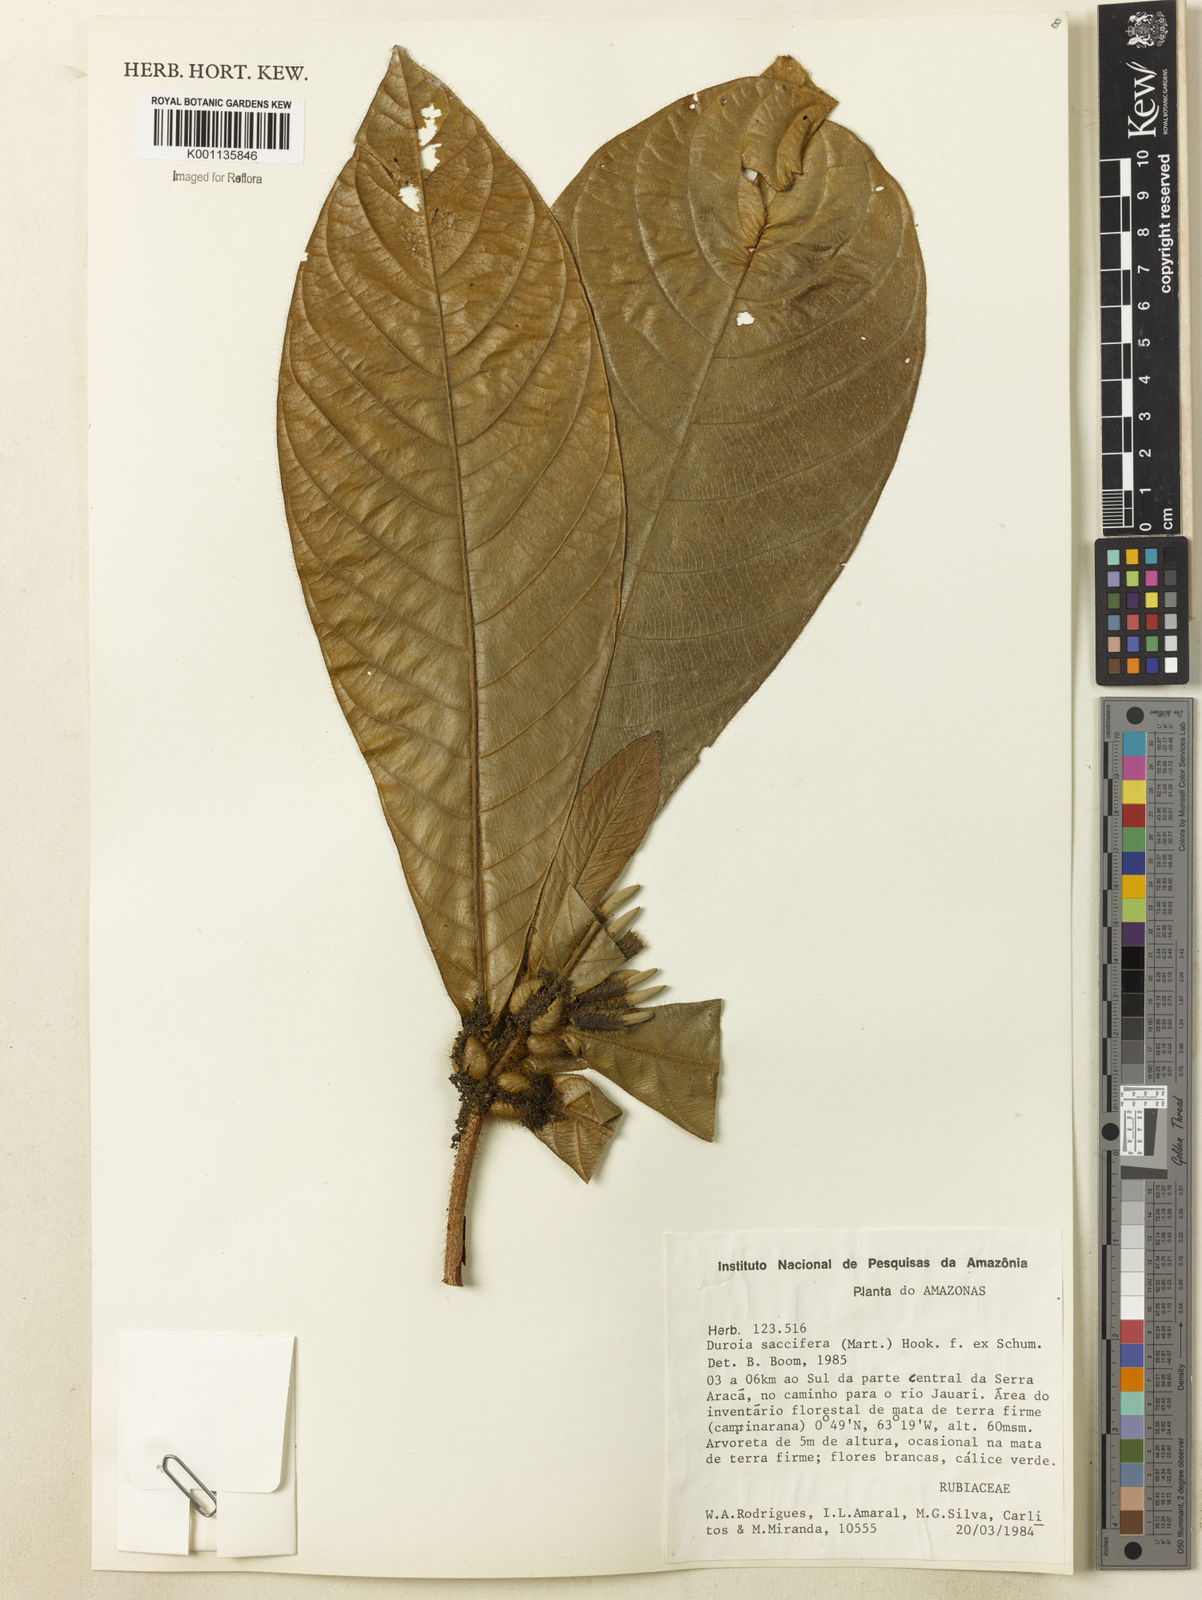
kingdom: Plantae
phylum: Tracheophyta
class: Magnoliopsida
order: Gentianales
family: Rubiaceae
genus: Duroia
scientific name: Duroia saccifera
